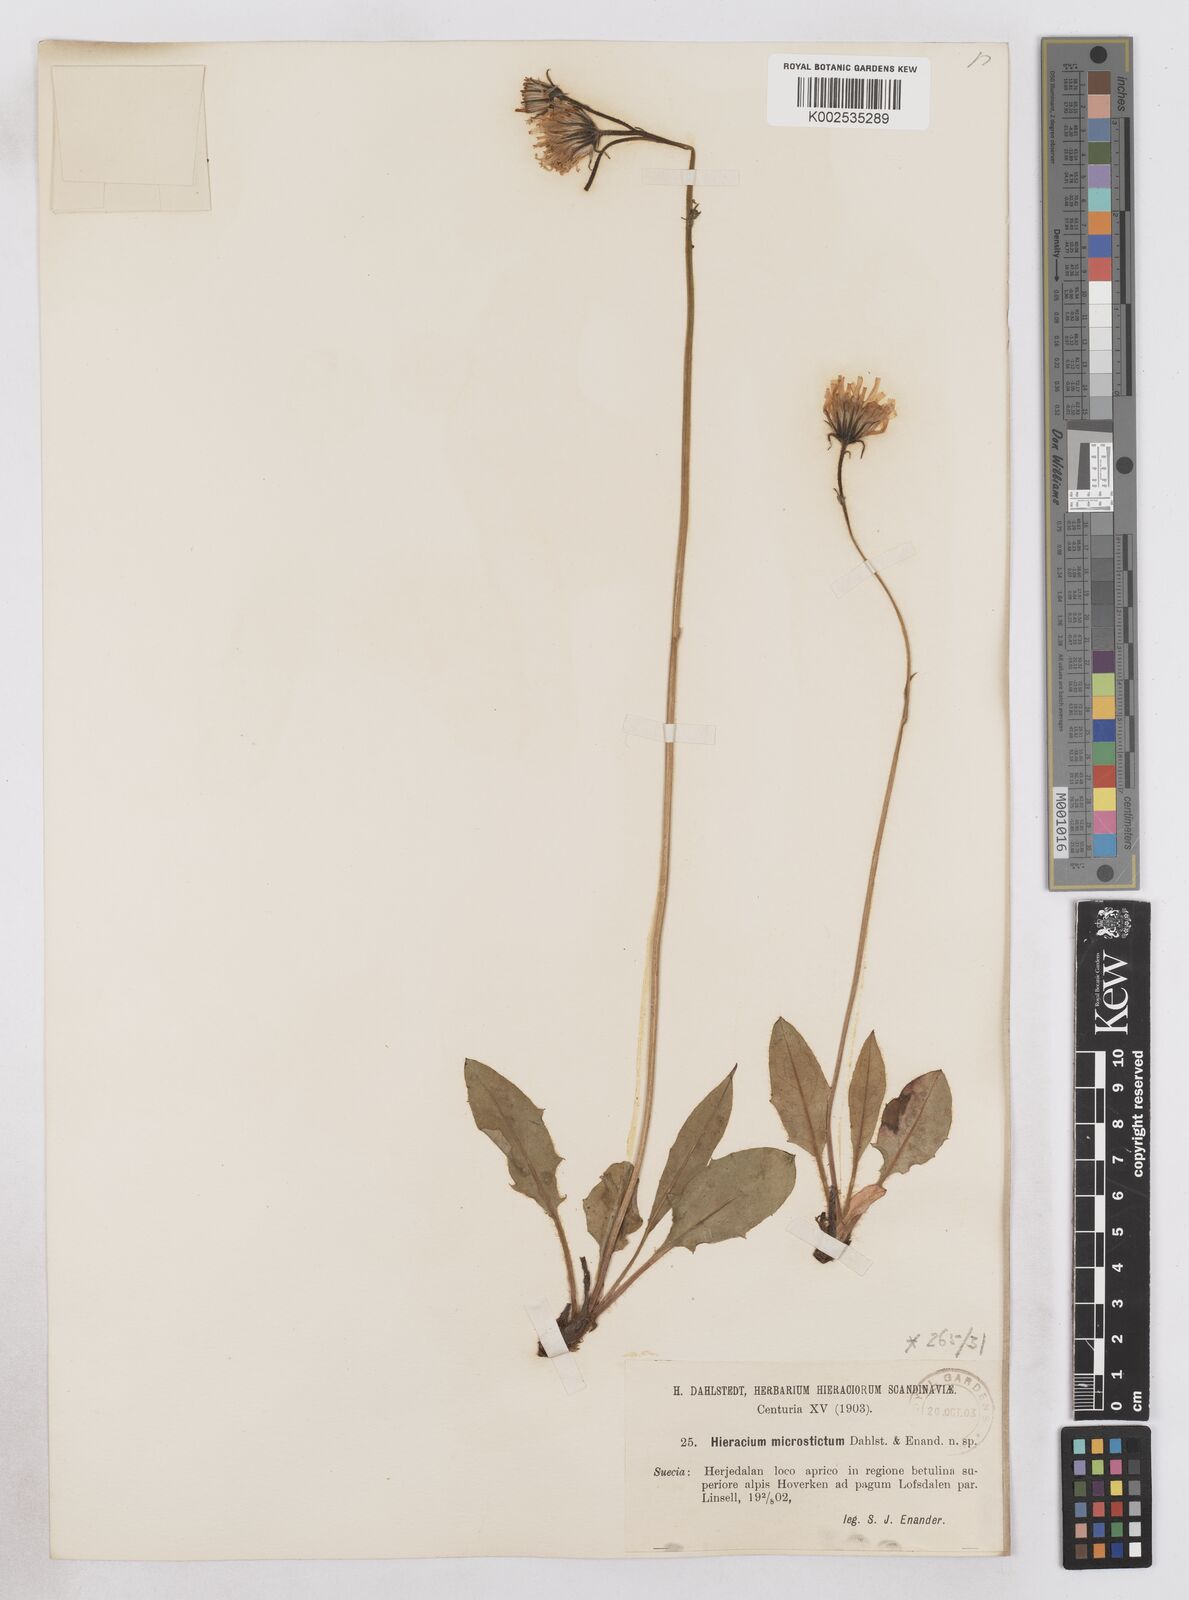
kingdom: Plantae
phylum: Tracheophyta
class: Magnoliopsida
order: Asterales
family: Asteraceae
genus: Hieracium
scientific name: Hieracium lividorubens
